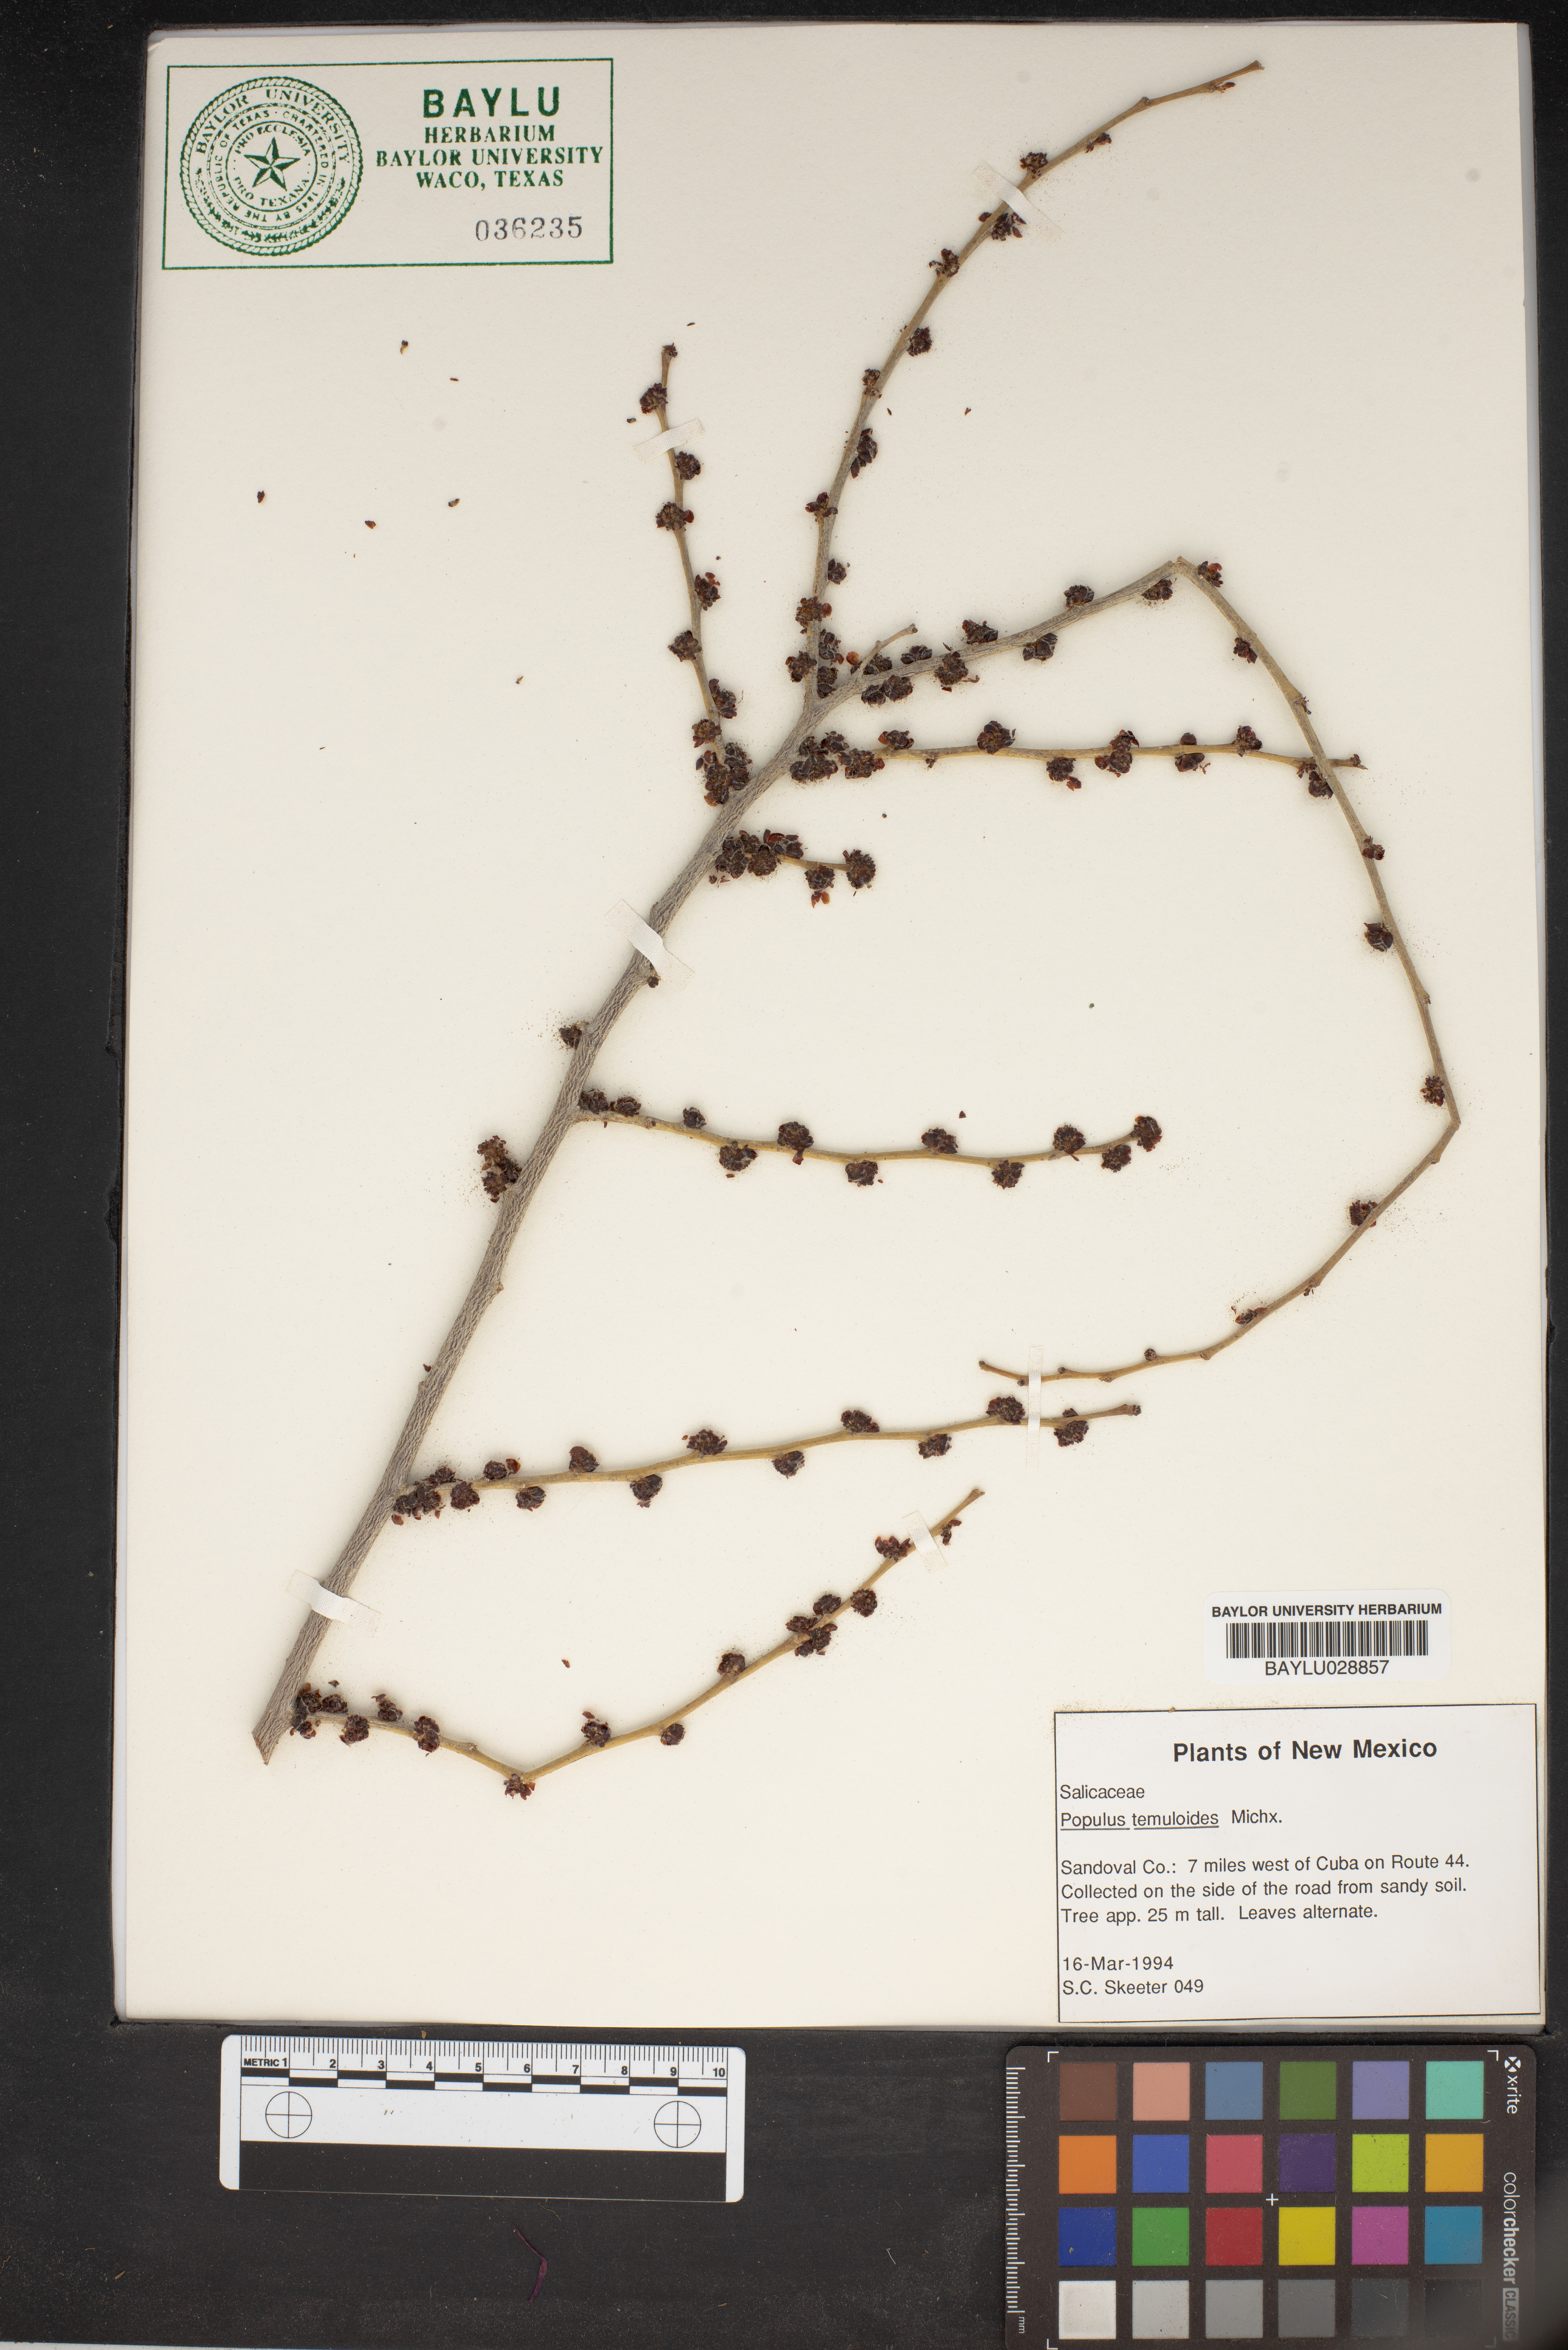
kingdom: Plantae
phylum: Tracheophyta
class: Magnoliopsida
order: Malpighiales
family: Salicaceae
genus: Populus
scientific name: Populus
